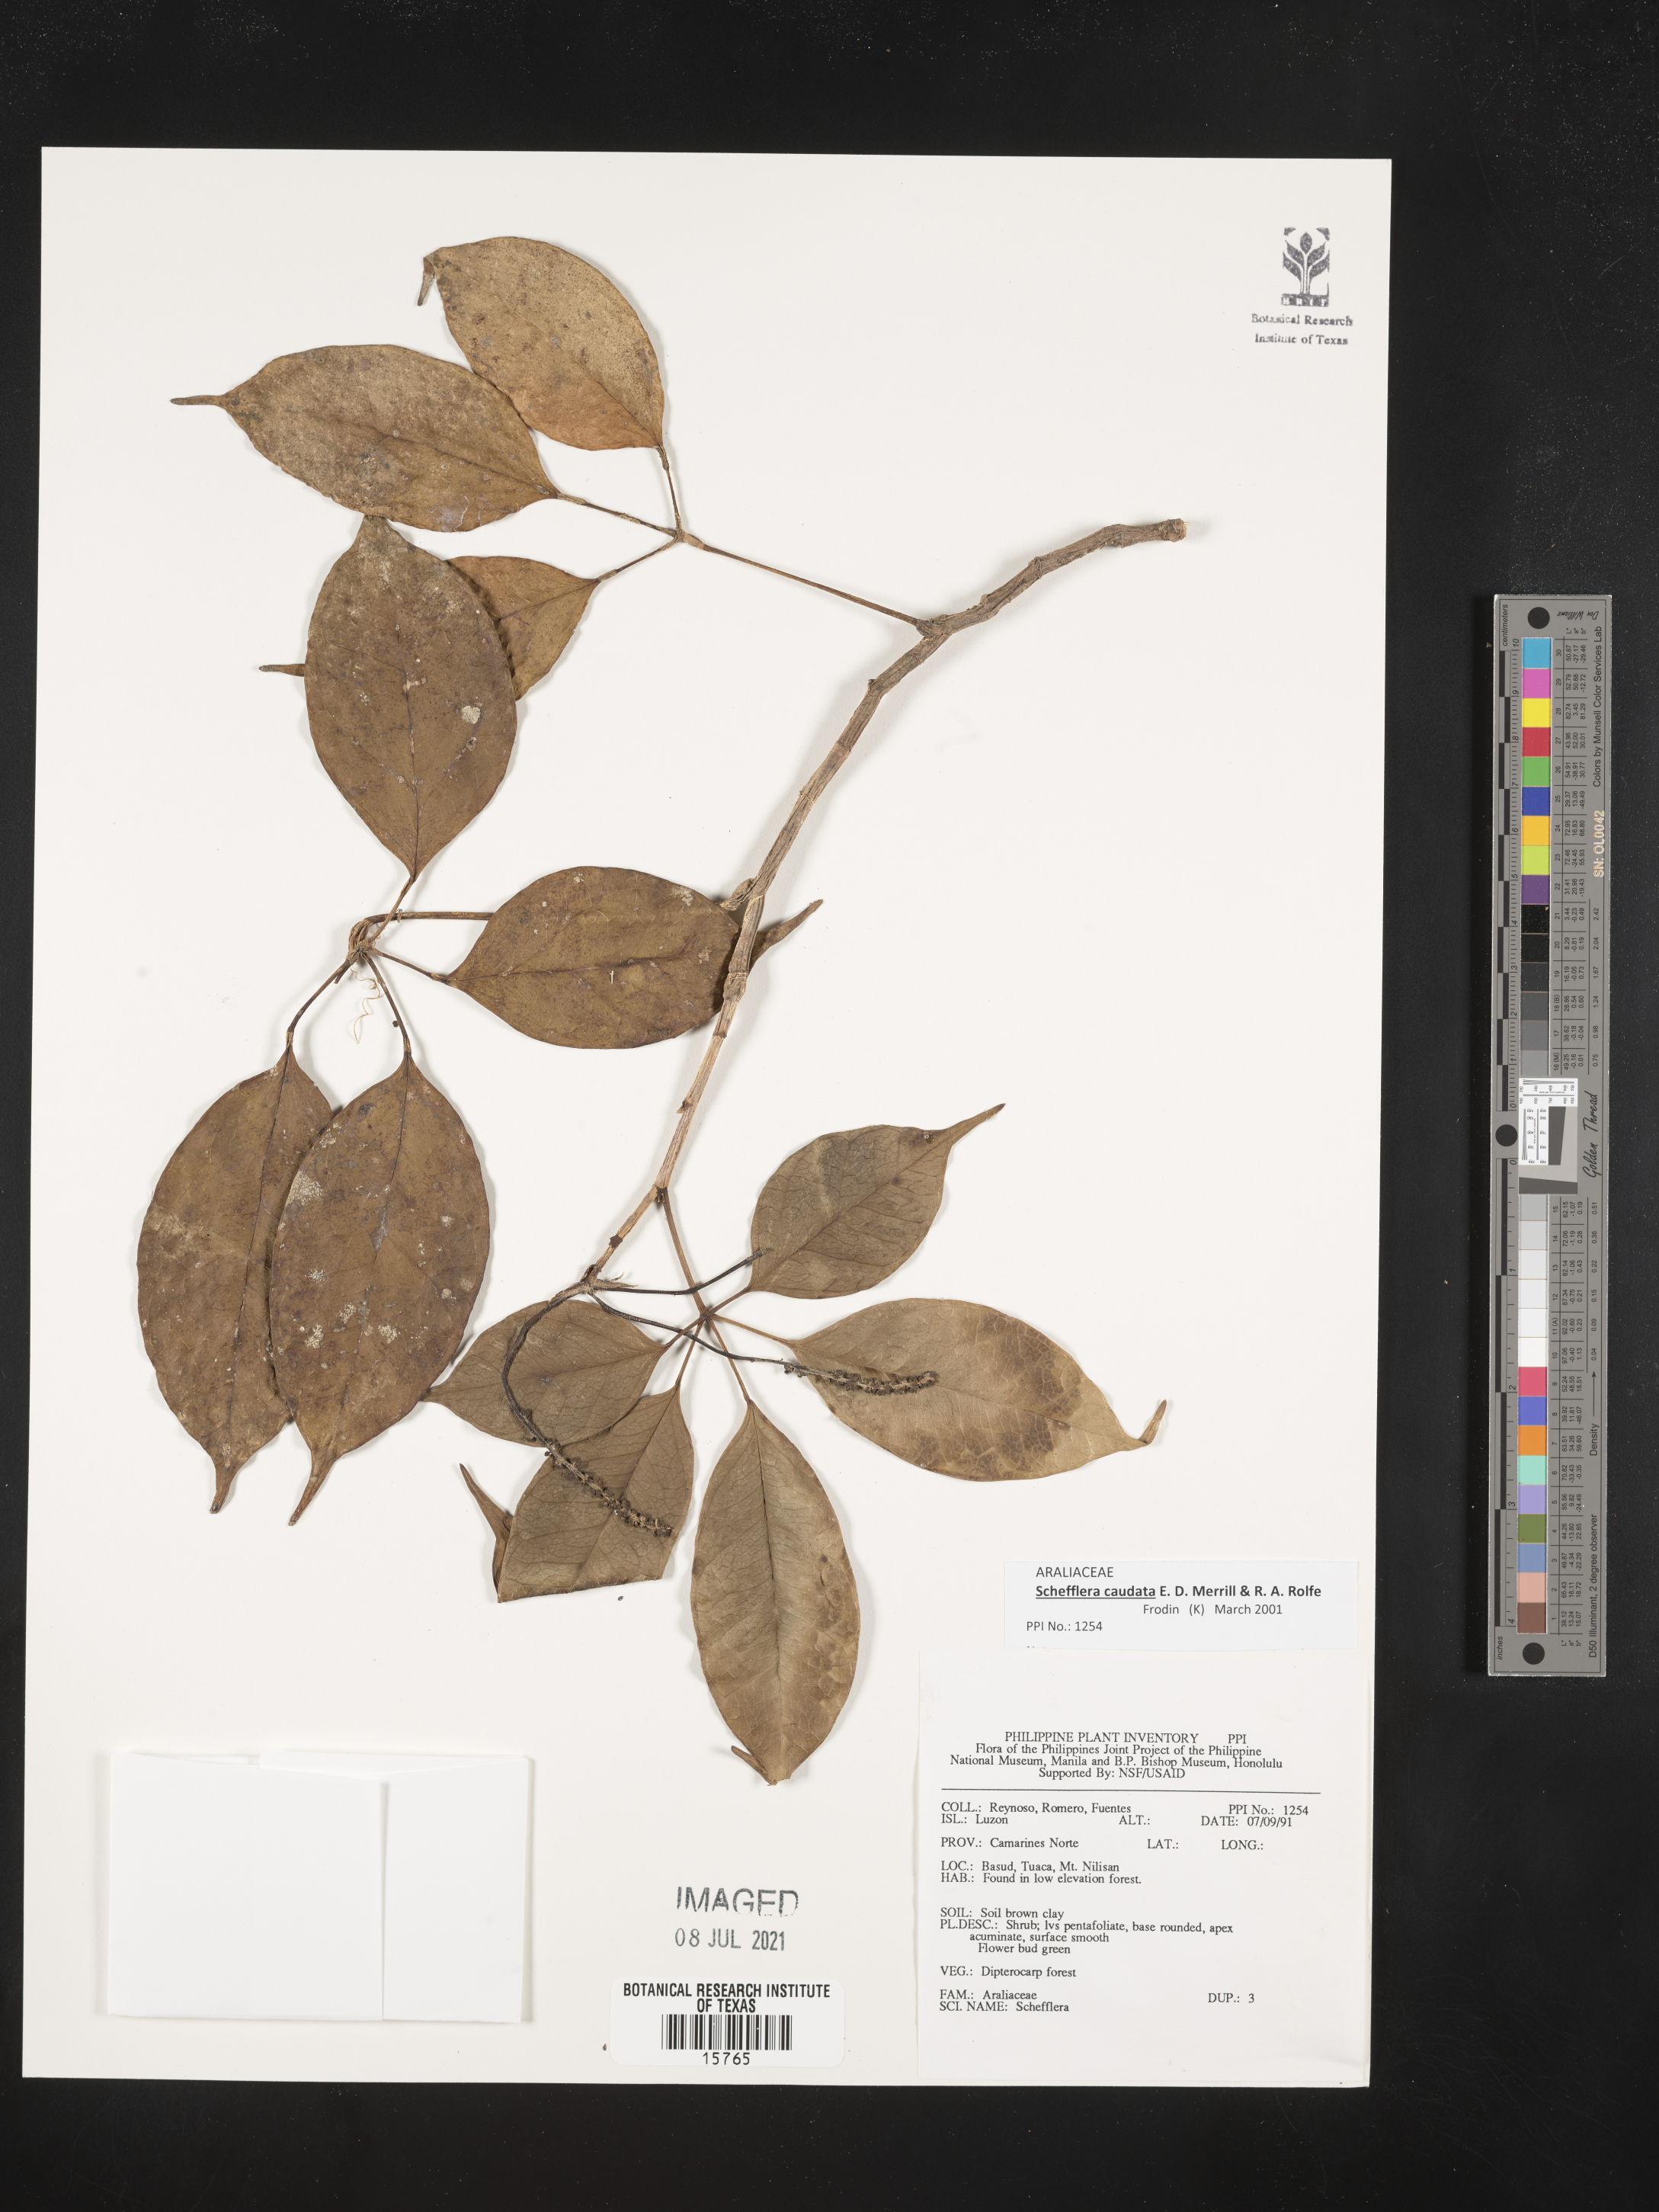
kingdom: Plantae
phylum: Tracheophyta
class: Magnoliopsida
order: Apiales
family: Araliaceae
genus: Schefflera
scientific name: Schefflera
